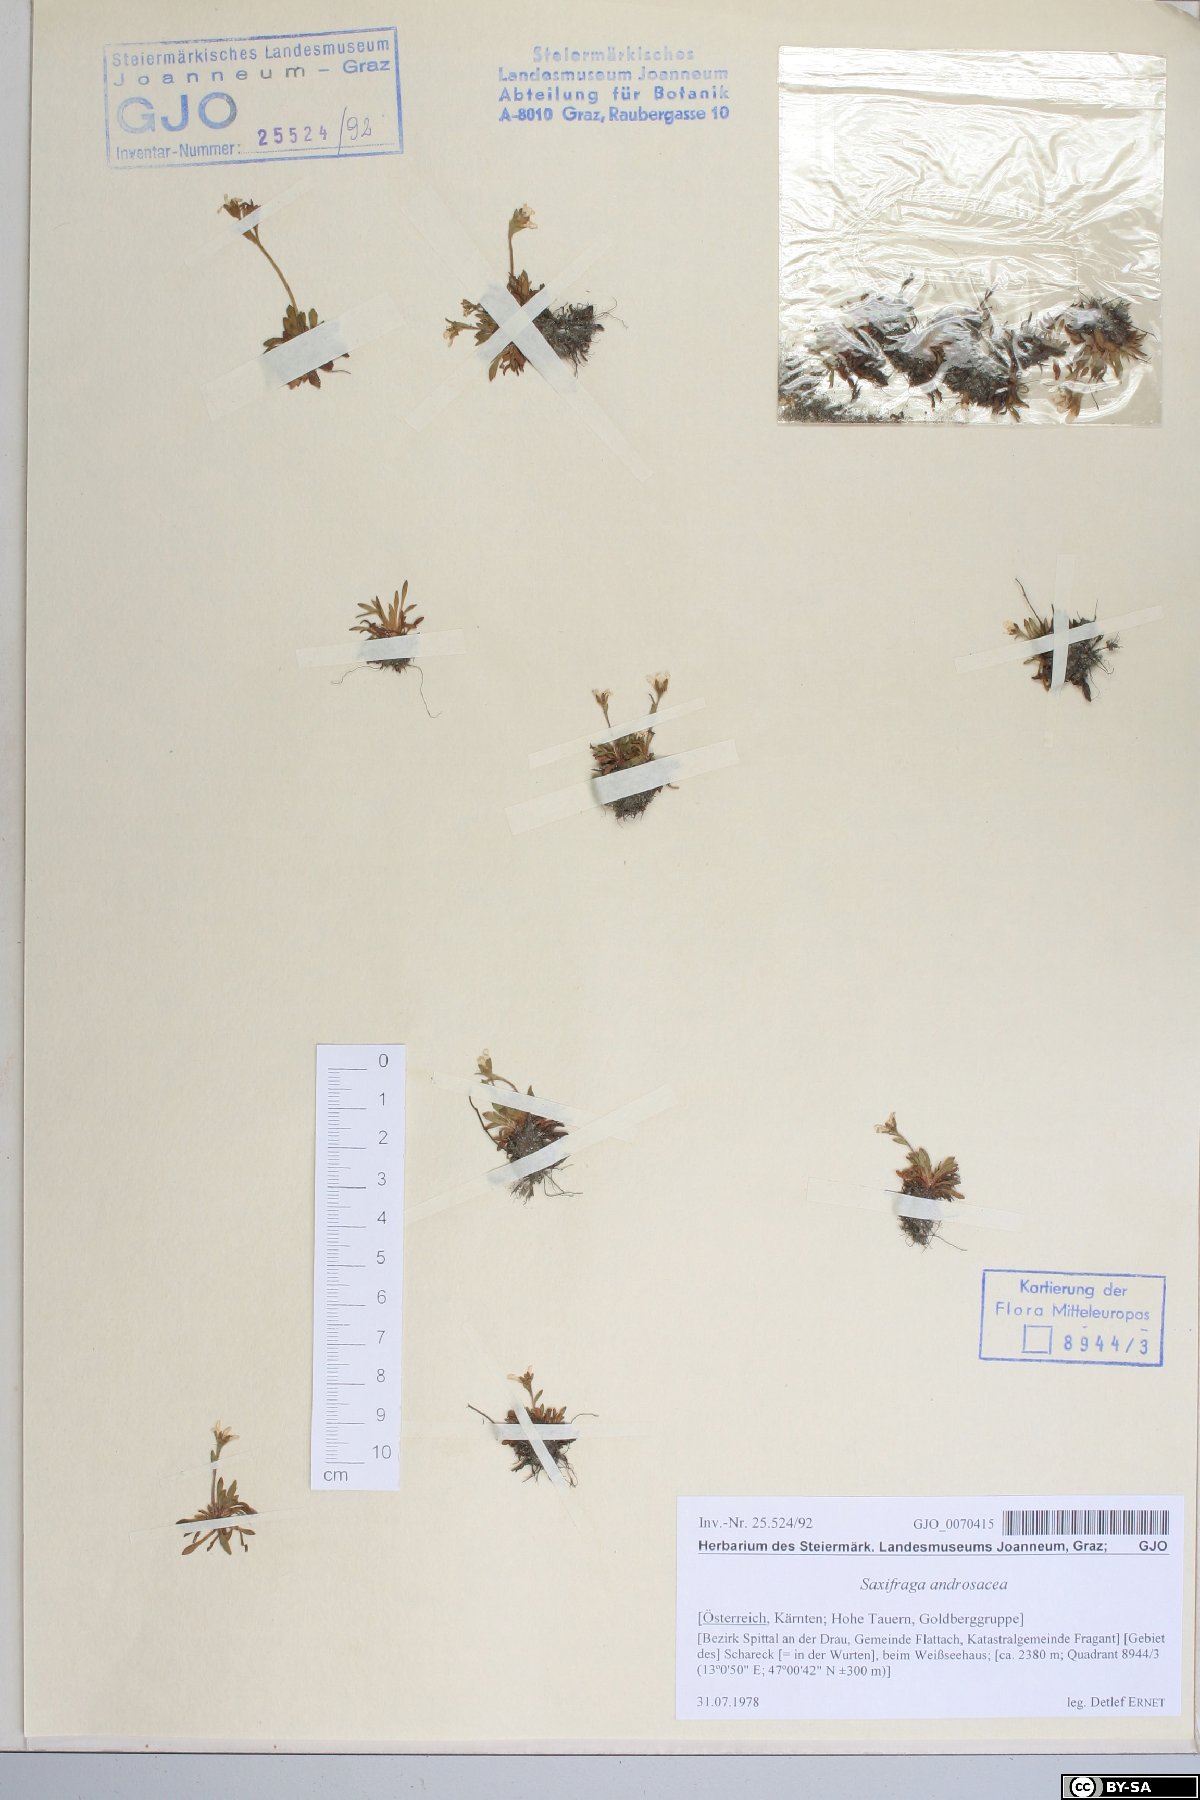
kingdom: Plantae
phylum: Tracheophyta
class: Magnoliopsida
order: Saxifragales
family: Saxifragaceae
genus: Saxifraga
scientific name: Saxifraga androsacea
